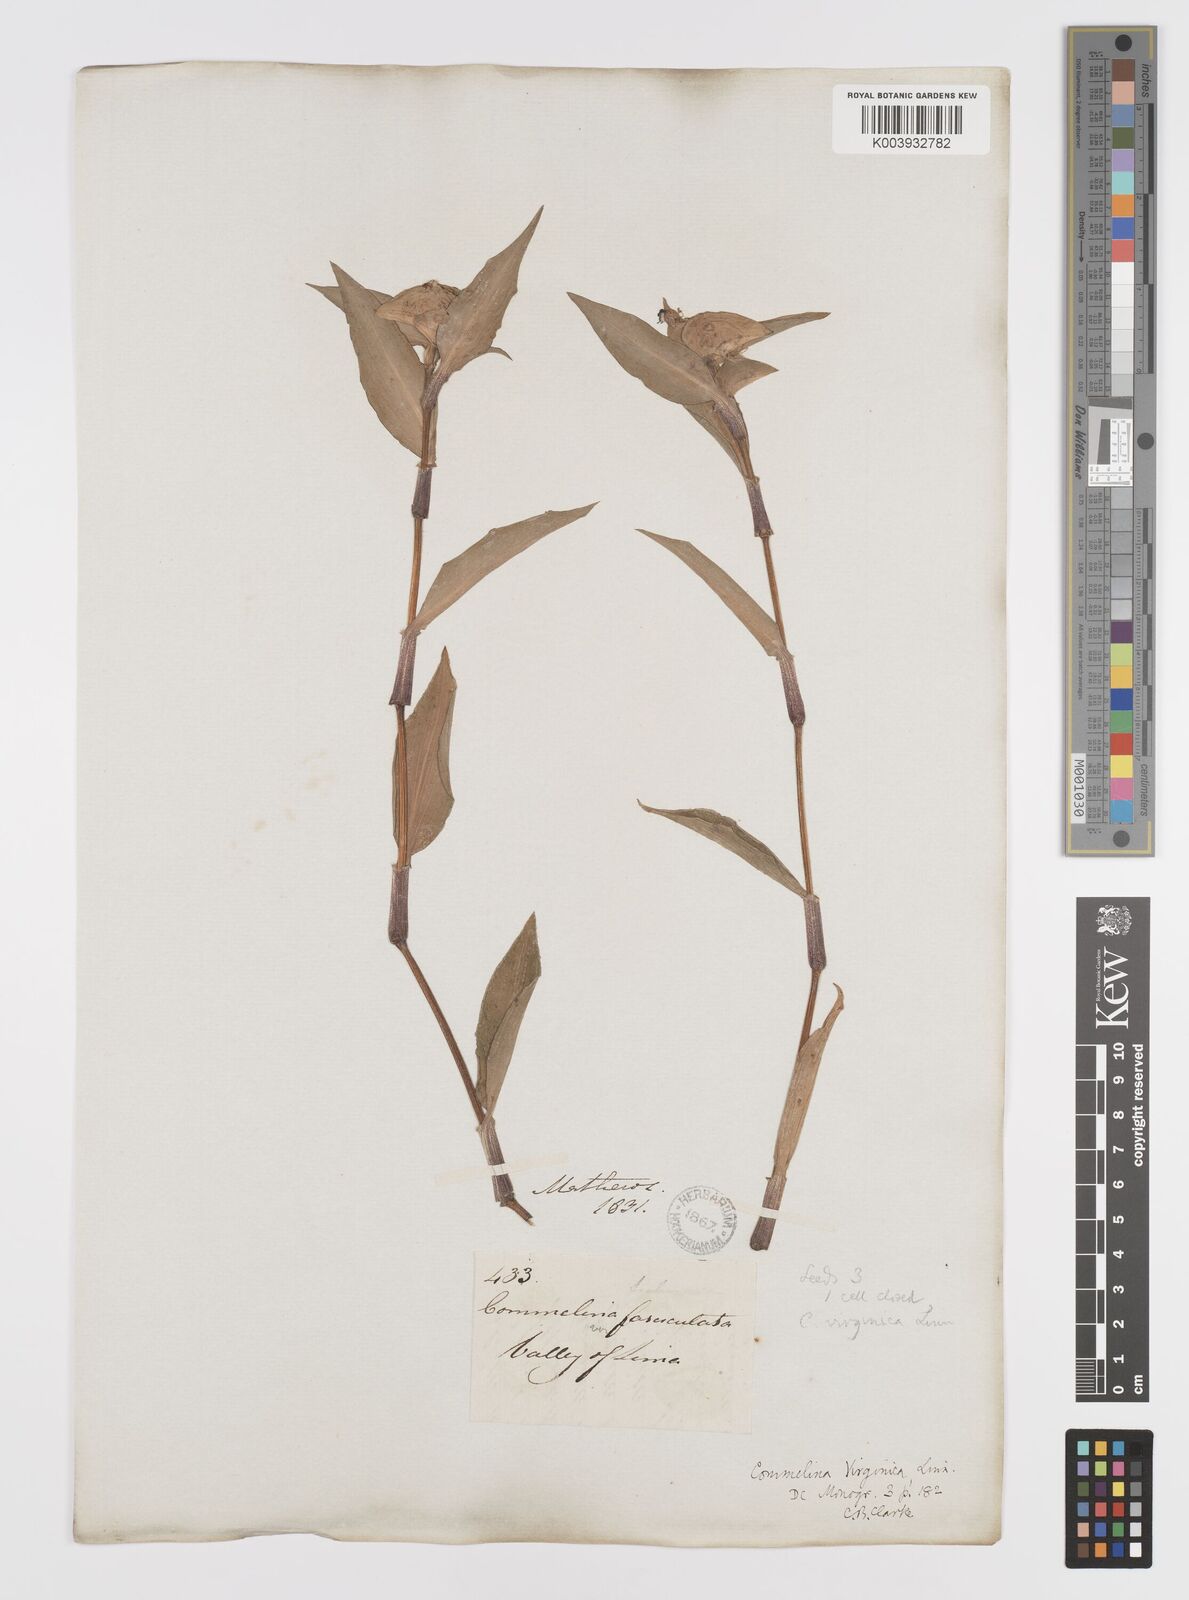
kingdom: Plantae
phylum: Tracheophyta
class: Liliopsida
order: Commelinales
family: Commelinaceae
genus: Commelina
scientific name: Commelina virginica
